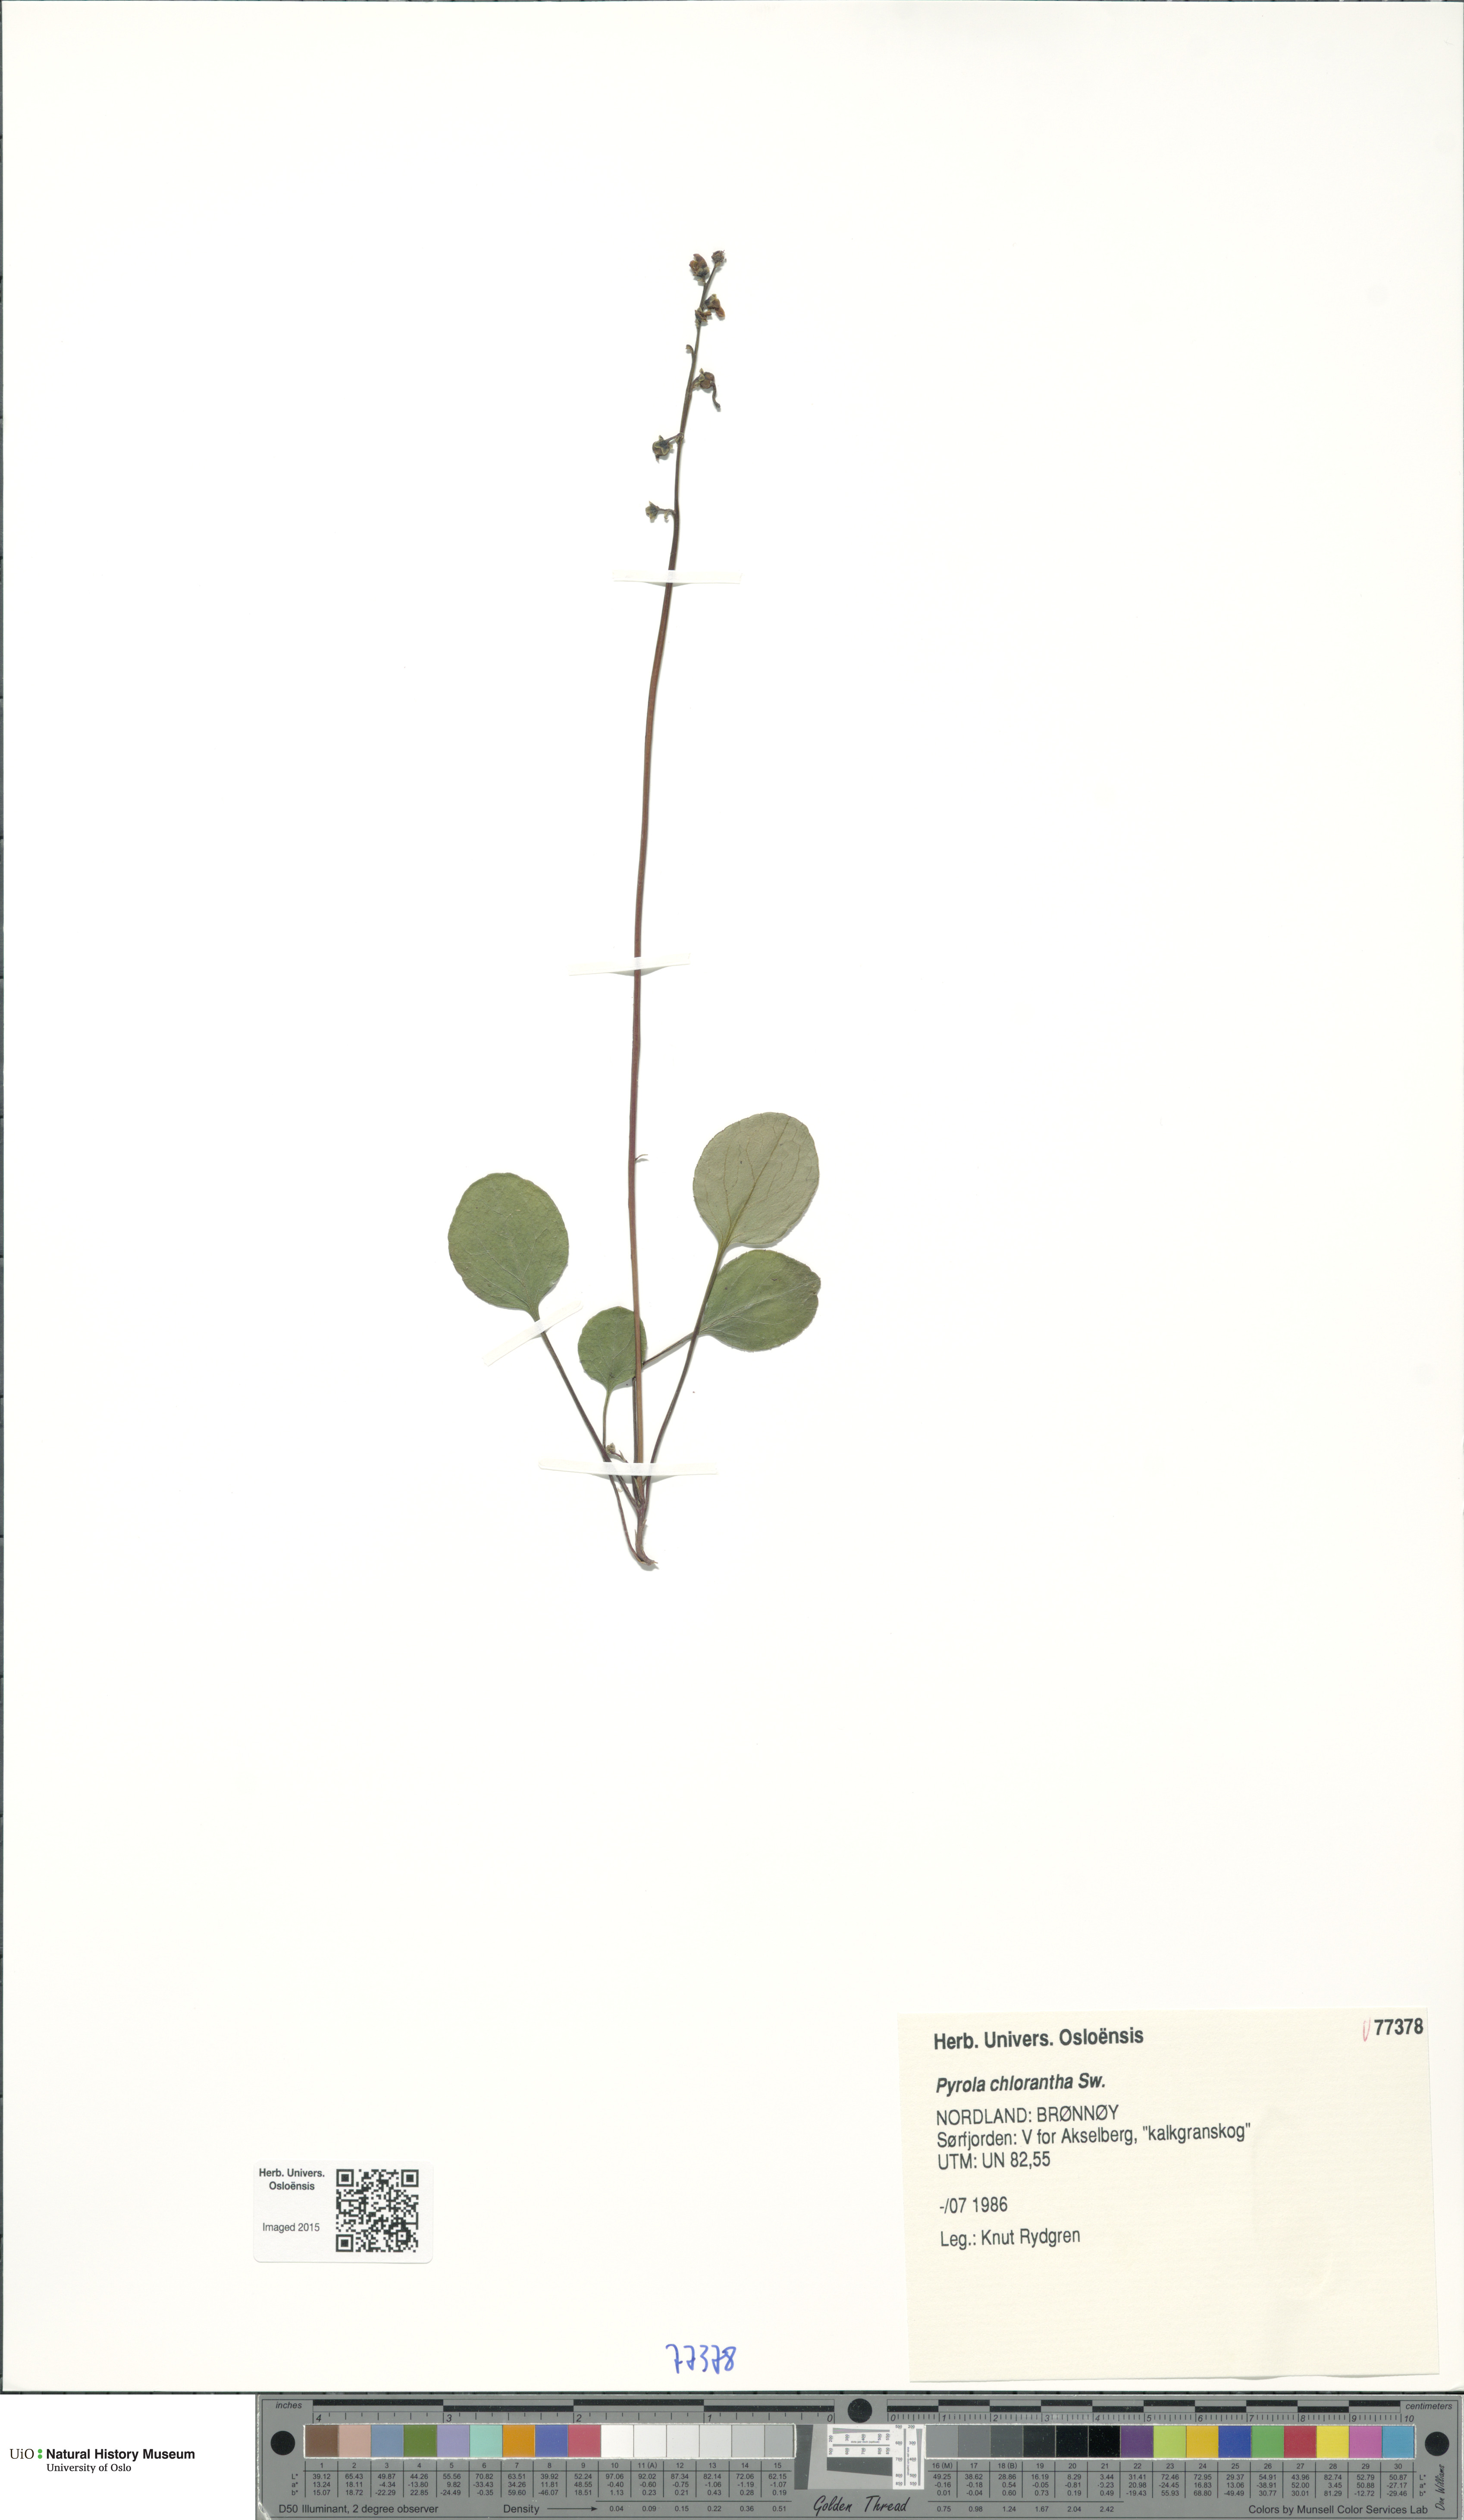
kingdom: Plantae
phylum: Tracheophyta
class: Magnoliopsida
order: Ericales
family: Ericaceae
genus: Pyrola
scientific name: Pyrola chlorantha
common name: Green wintergreen
